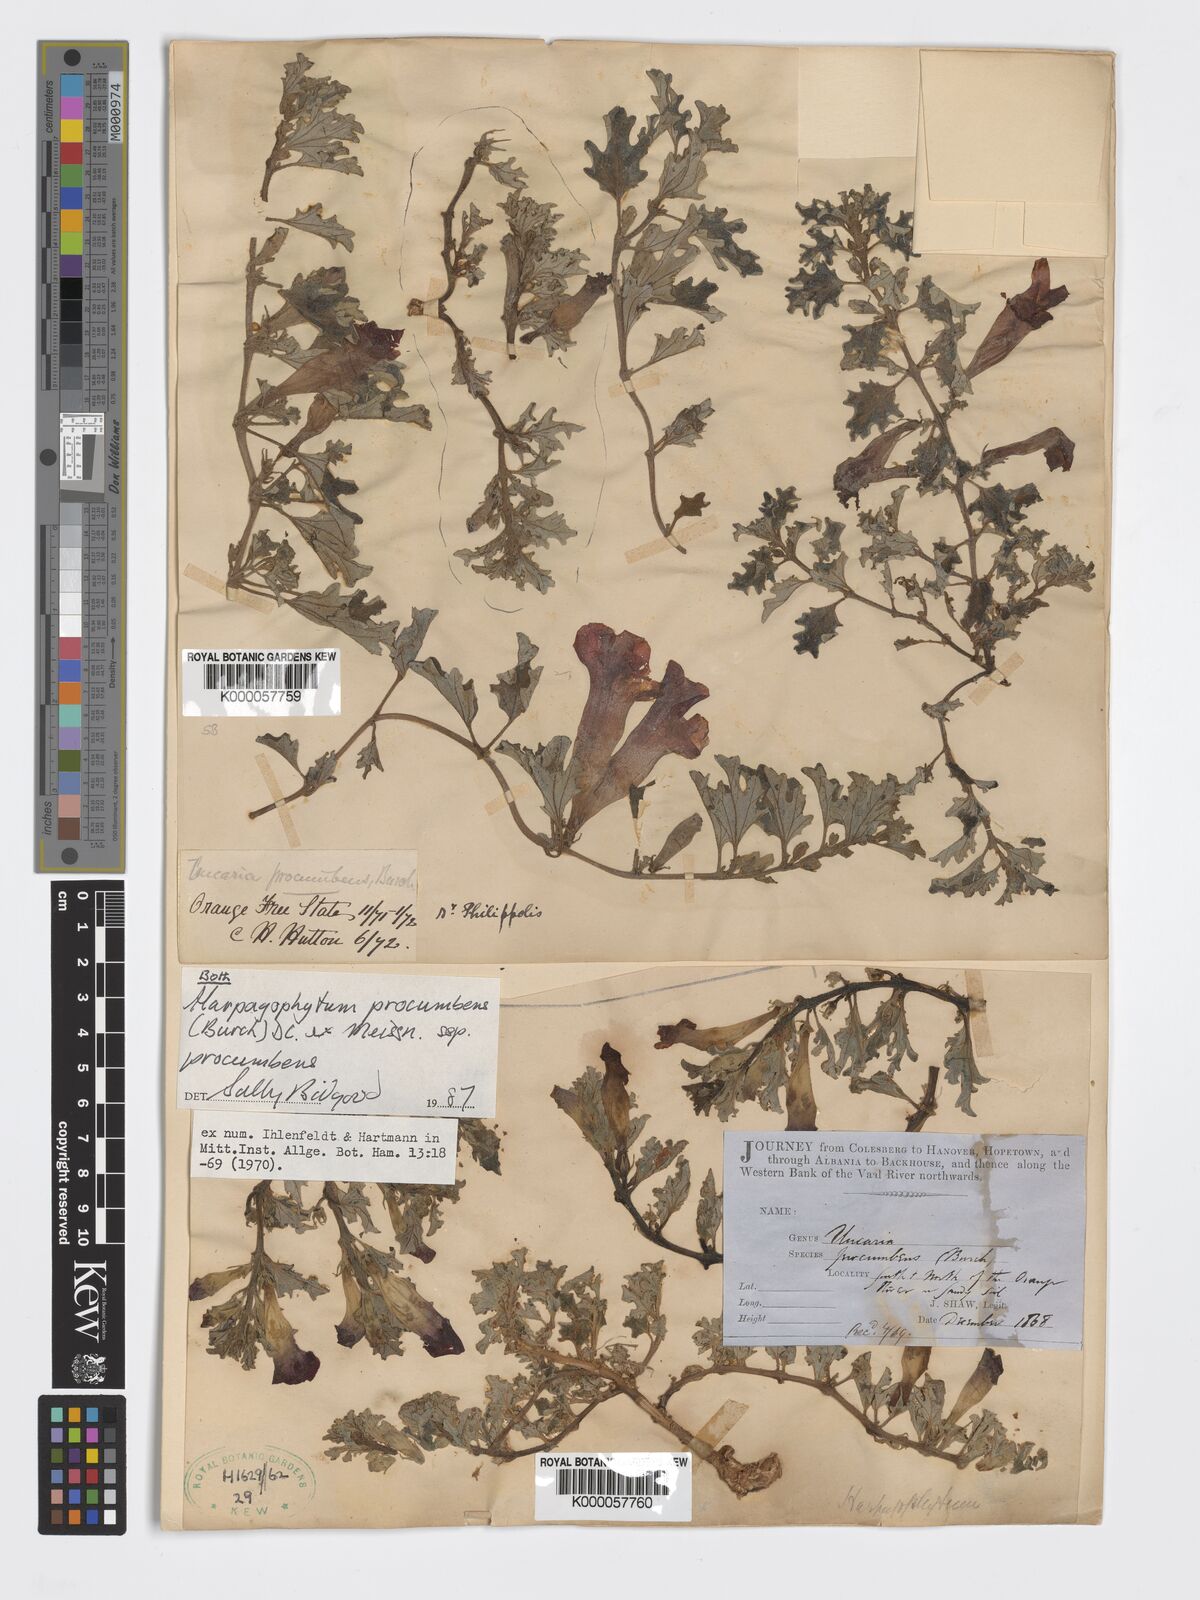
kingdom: Plantae
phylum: Tracheophyta
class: Magnoliopsida
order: Lamiales
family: Pedaliaceae
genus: Harpagophytum
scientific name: Harpagophytum procumbens
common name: Grappleplant
